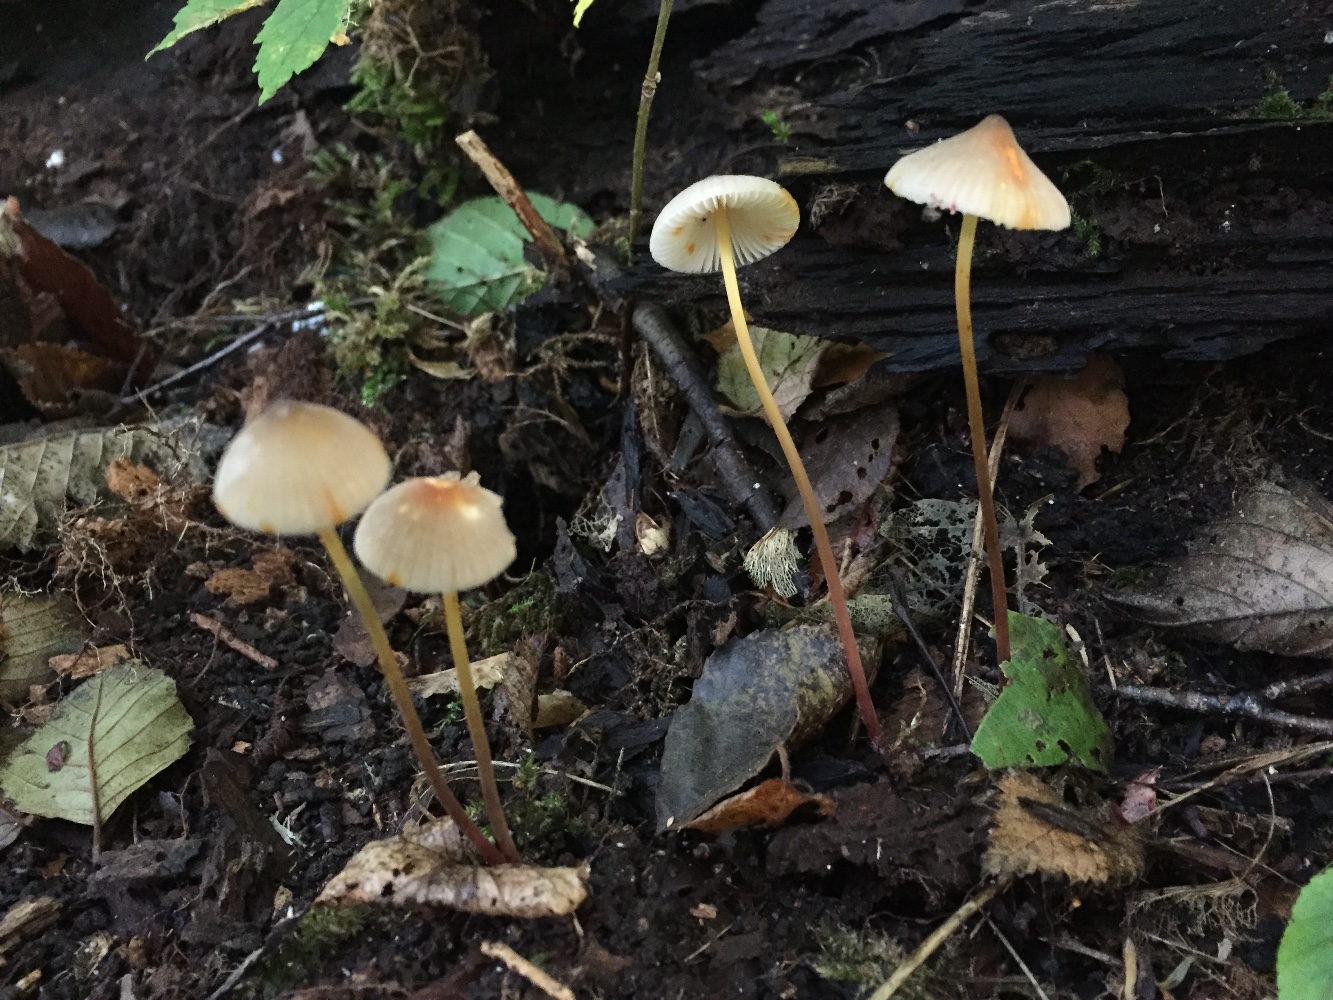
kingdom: Fungi
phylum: Basidiomycota
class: Agaricomycetes
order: Agaricales
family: Mycenaceae
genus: Mycena
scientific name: Mycena crocata
